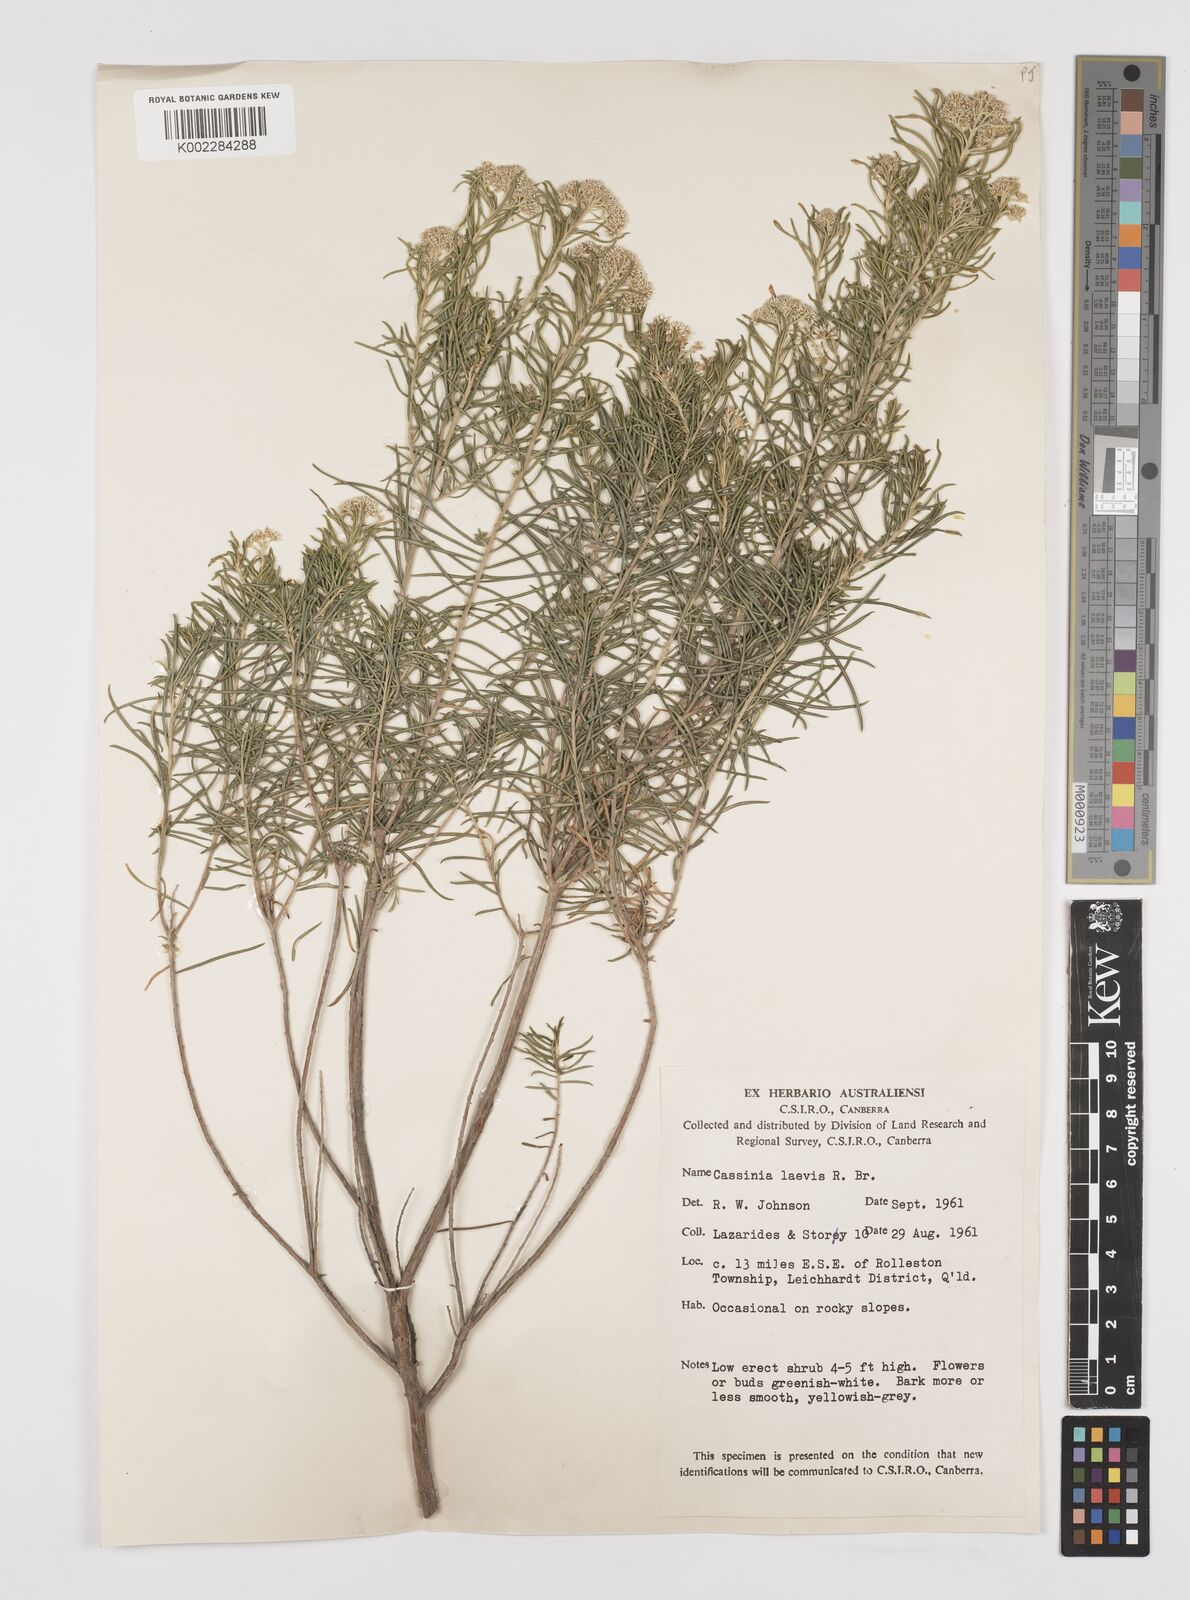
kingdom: Plantae
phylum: Tracheophyta
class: Magnoliopsida
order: Asterales
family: Asteraceae
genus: Cassinia
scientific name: Cassinia laevis
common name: Coughbush
